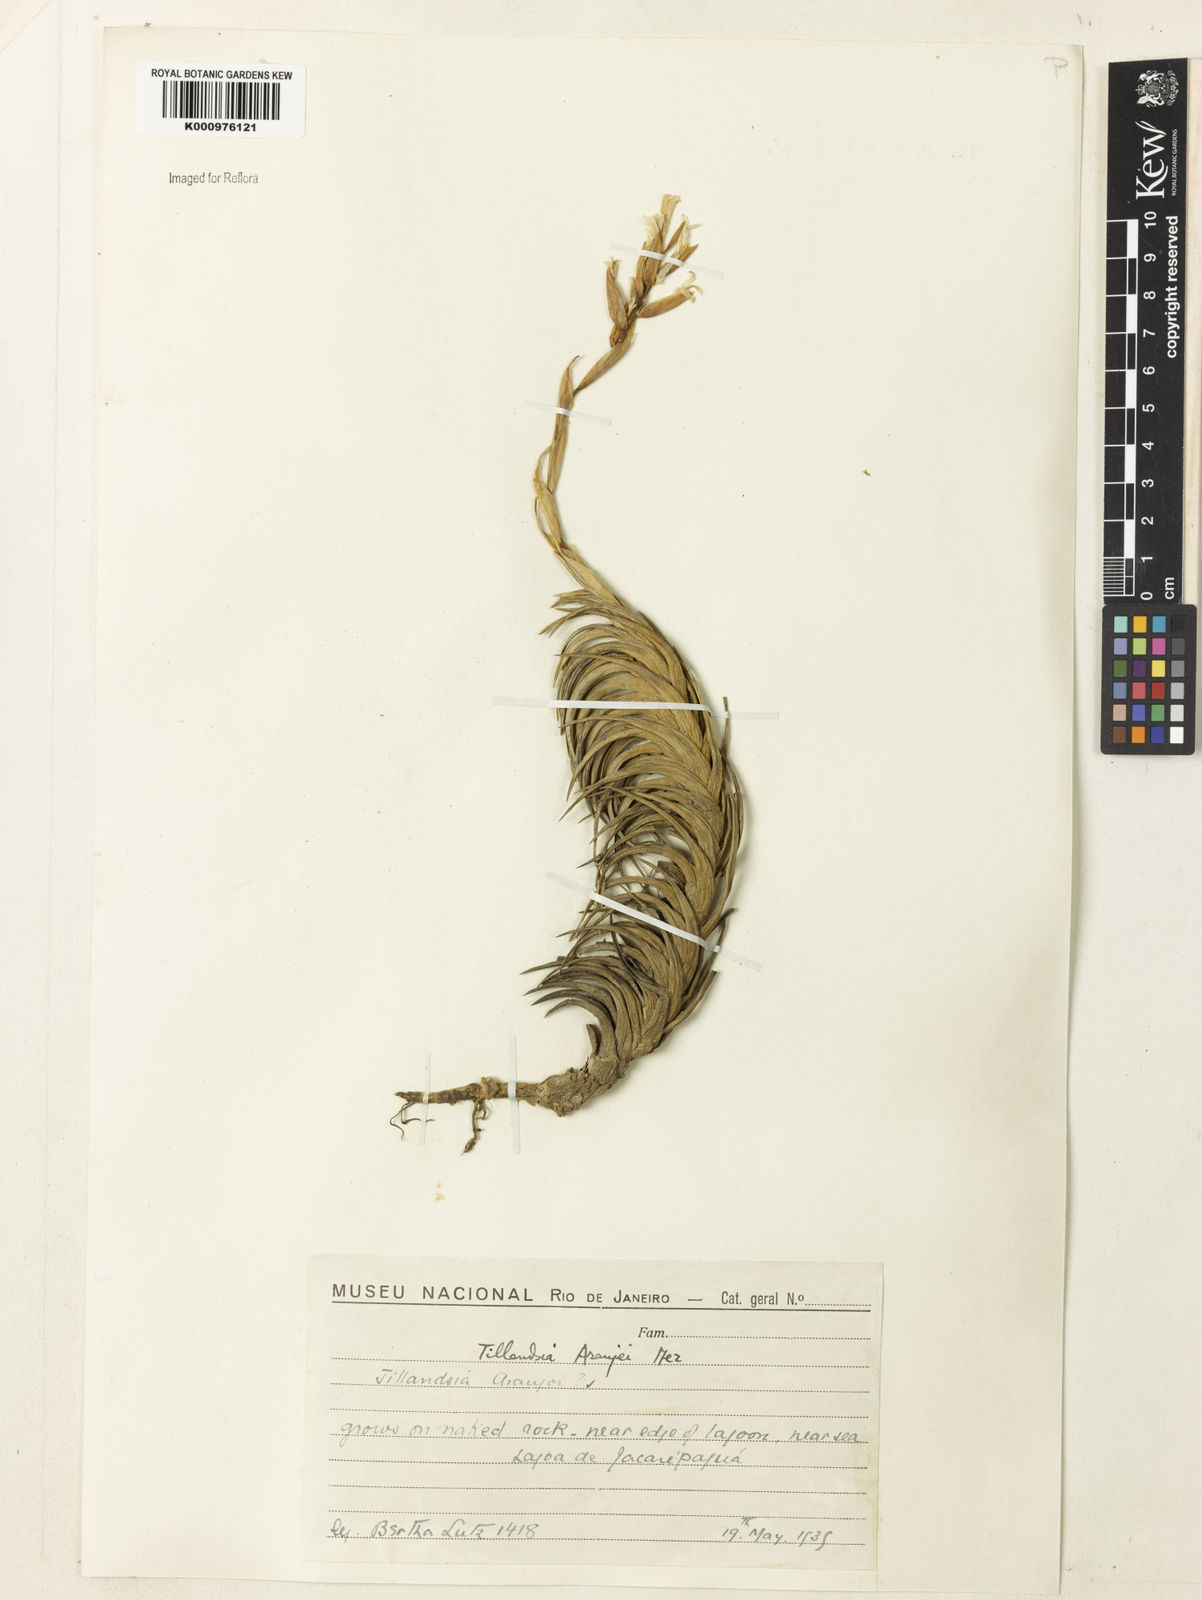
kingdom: Plantae
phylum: Tracheophyta
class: Liliopsida
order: Poales
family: Bromeliaceae
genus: Tillandsia
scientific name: Tillandsia araujei
